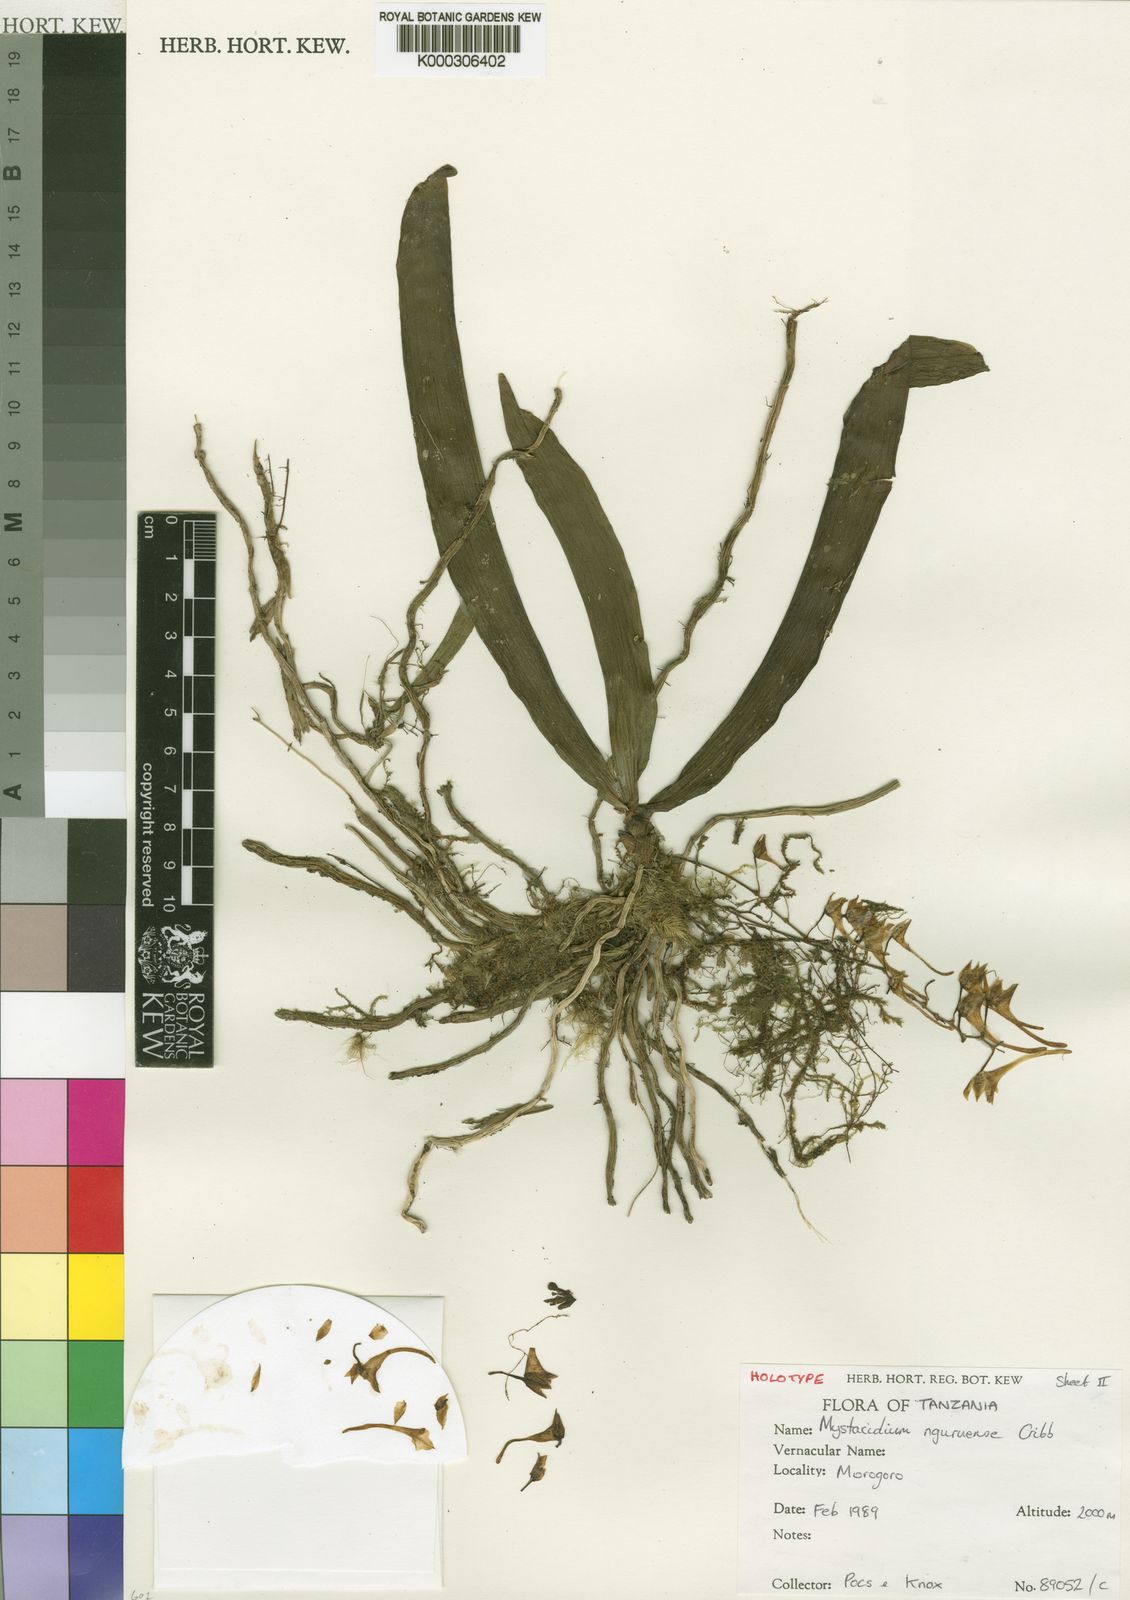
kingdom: Plantae
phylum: Tracheophyta
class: Liliopsida
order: Asparagales
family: Orchidaceae
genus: Mystacidium
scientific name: Mystacidium nguruense
